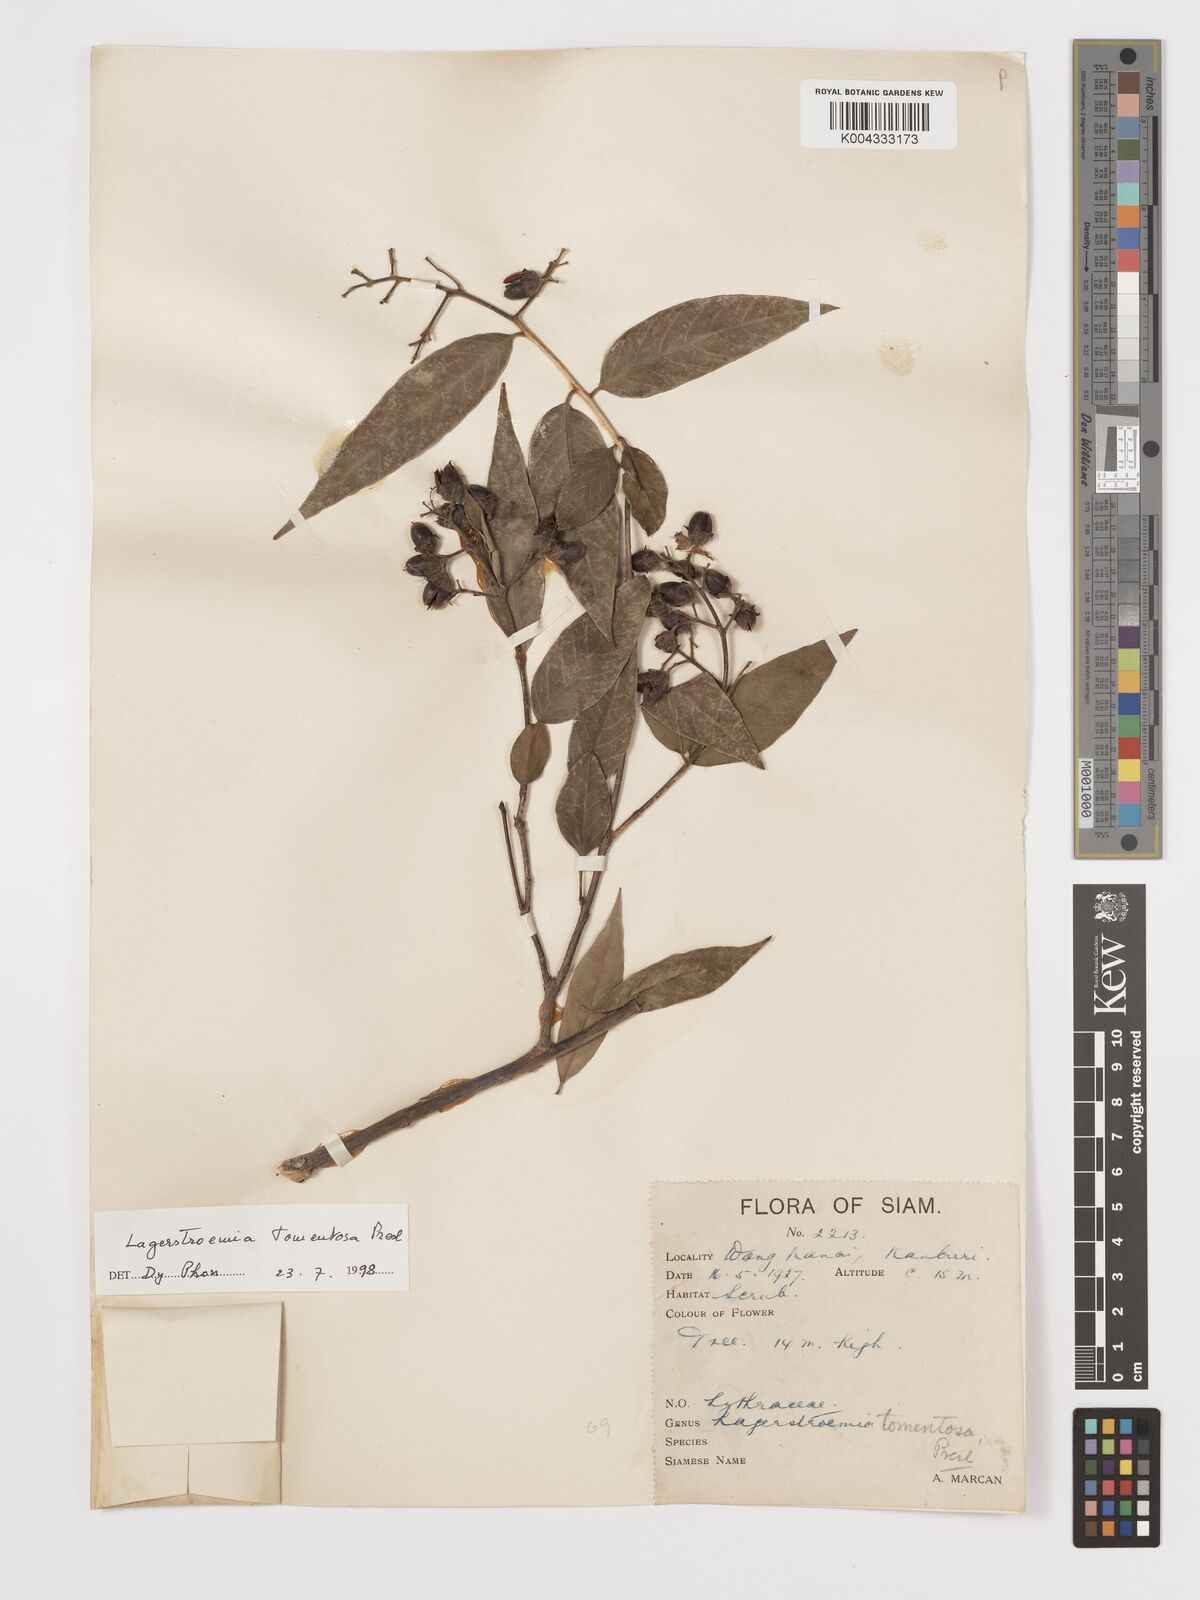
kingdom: Plantae
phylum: Tracheophyta
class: Magnoliopsida
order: Myrtales
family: Lythraceae
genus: Lagerstroemia
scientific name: Lagerstroemia tomentosa
